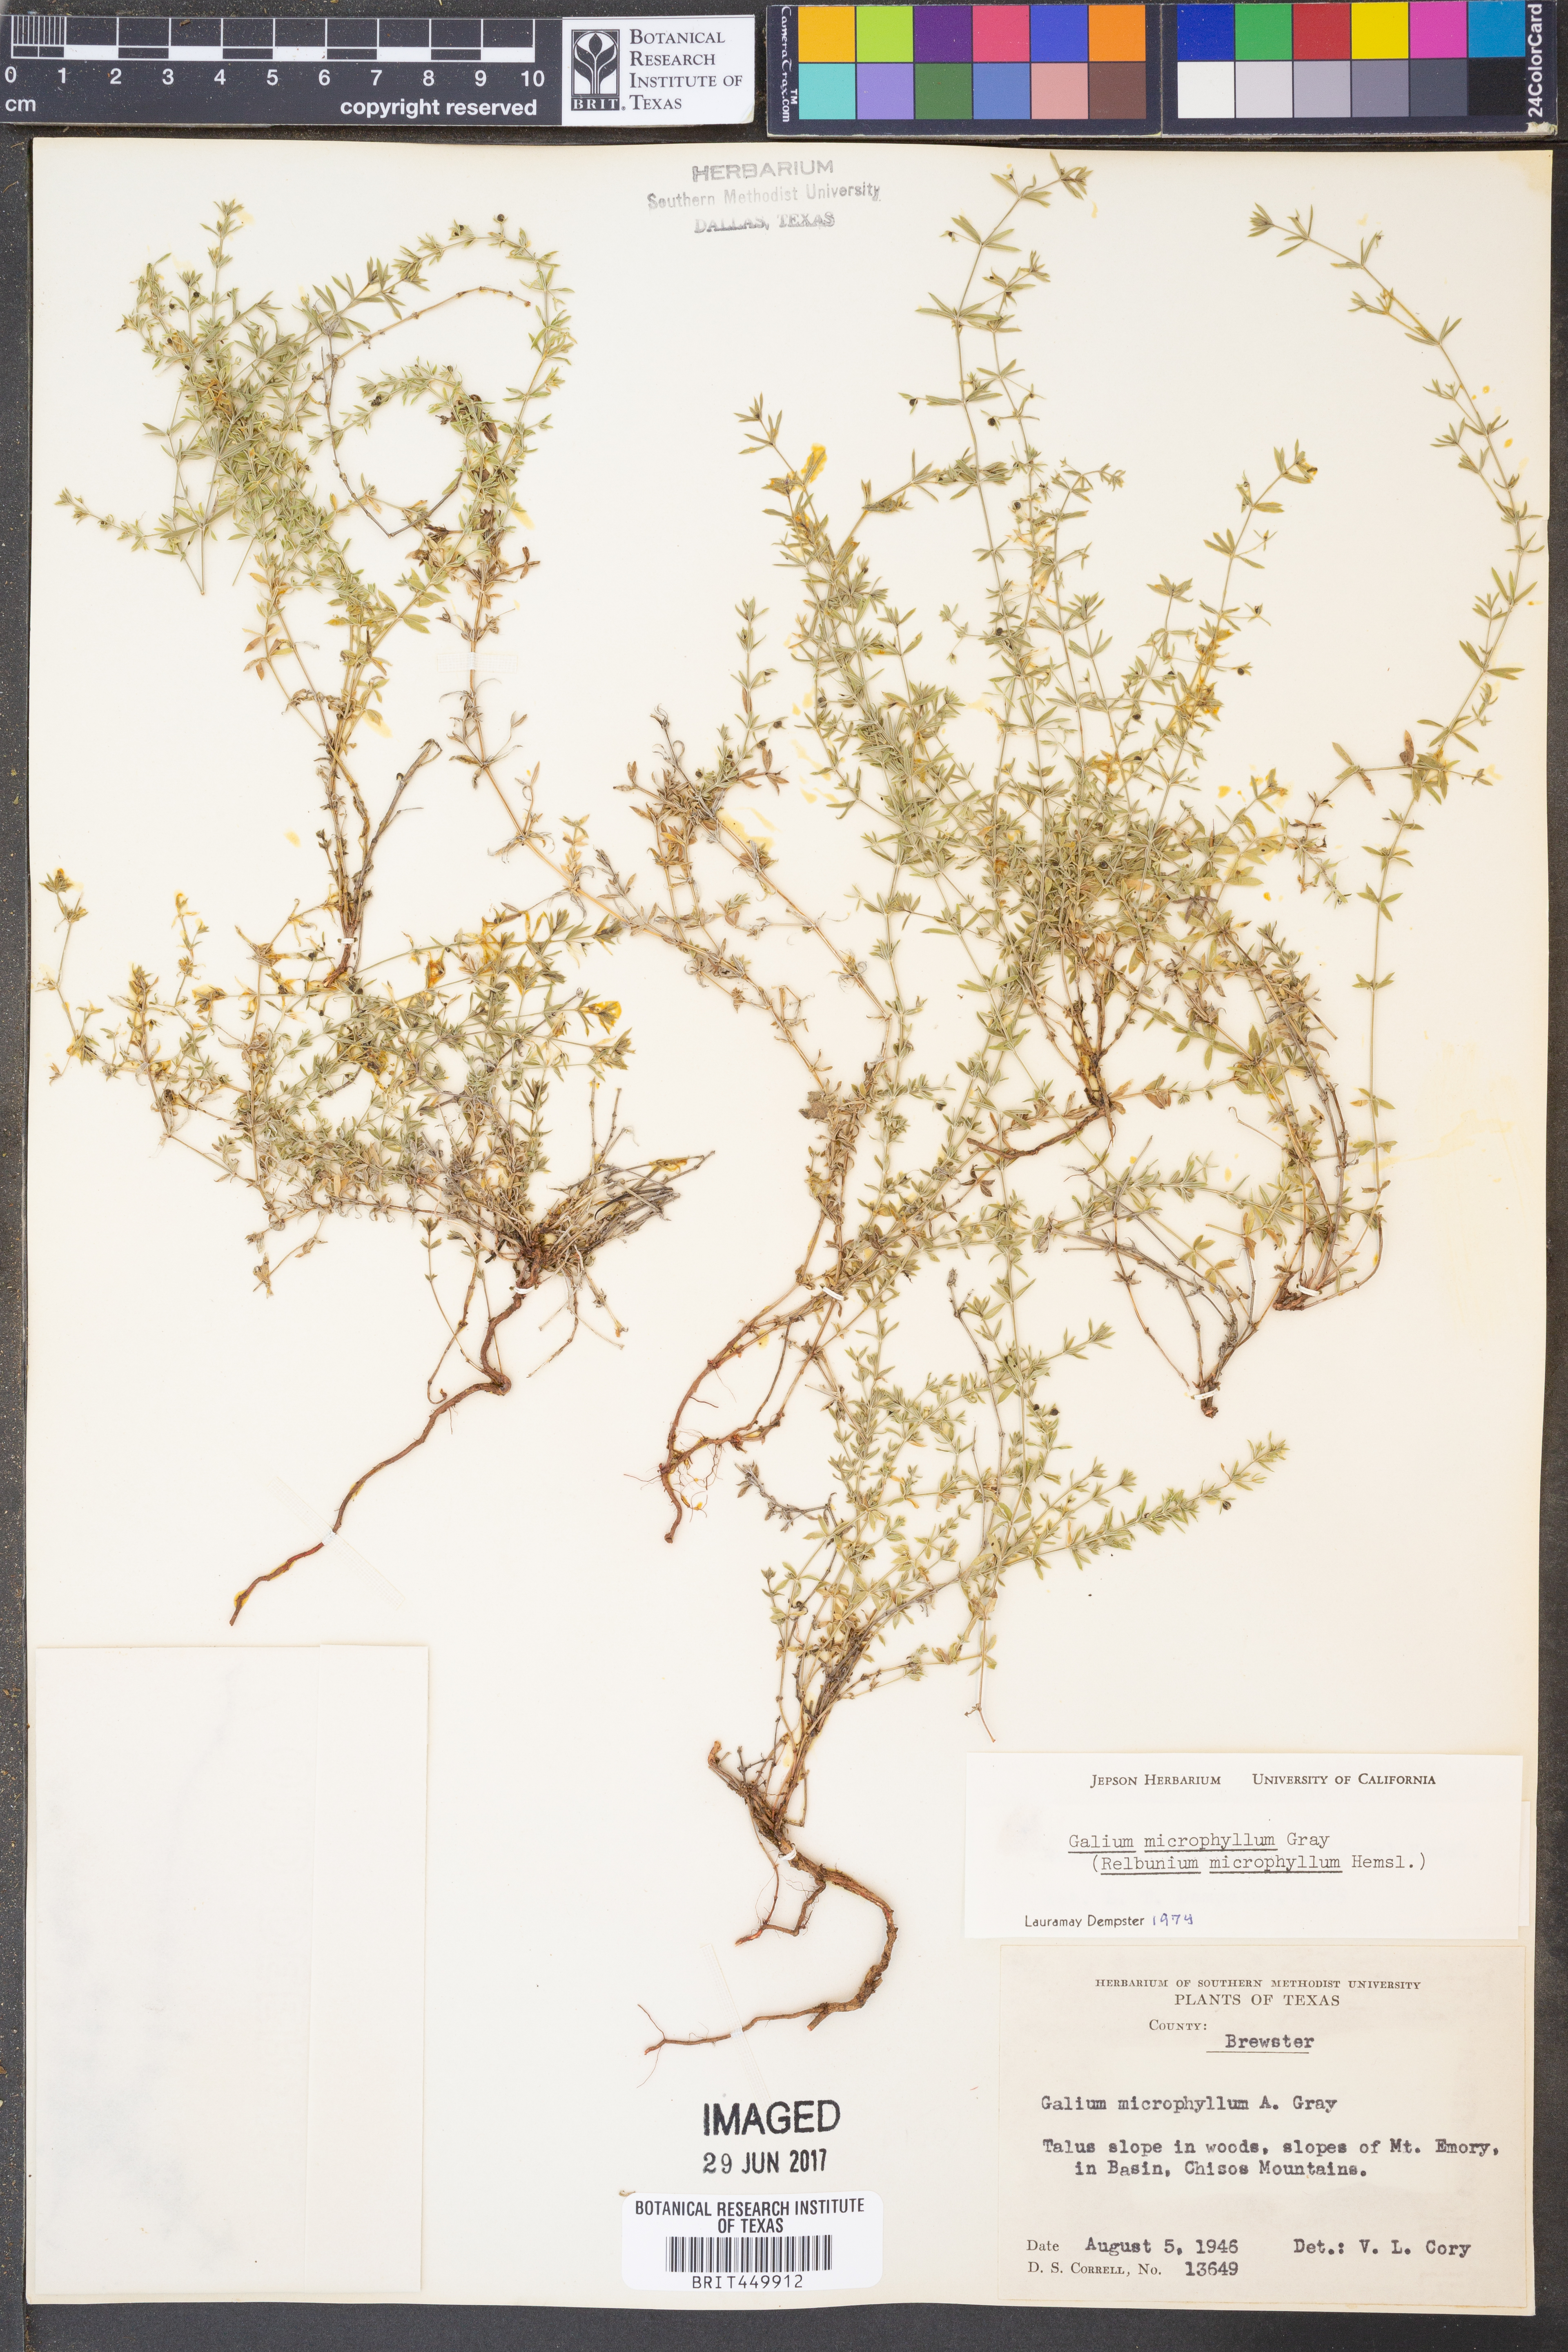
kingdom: Plantae
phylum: Tracheophyta
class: Magnoliopsida
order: Gentianales
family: Rubiaceae
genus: Galium
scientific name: Galium microphyllum
